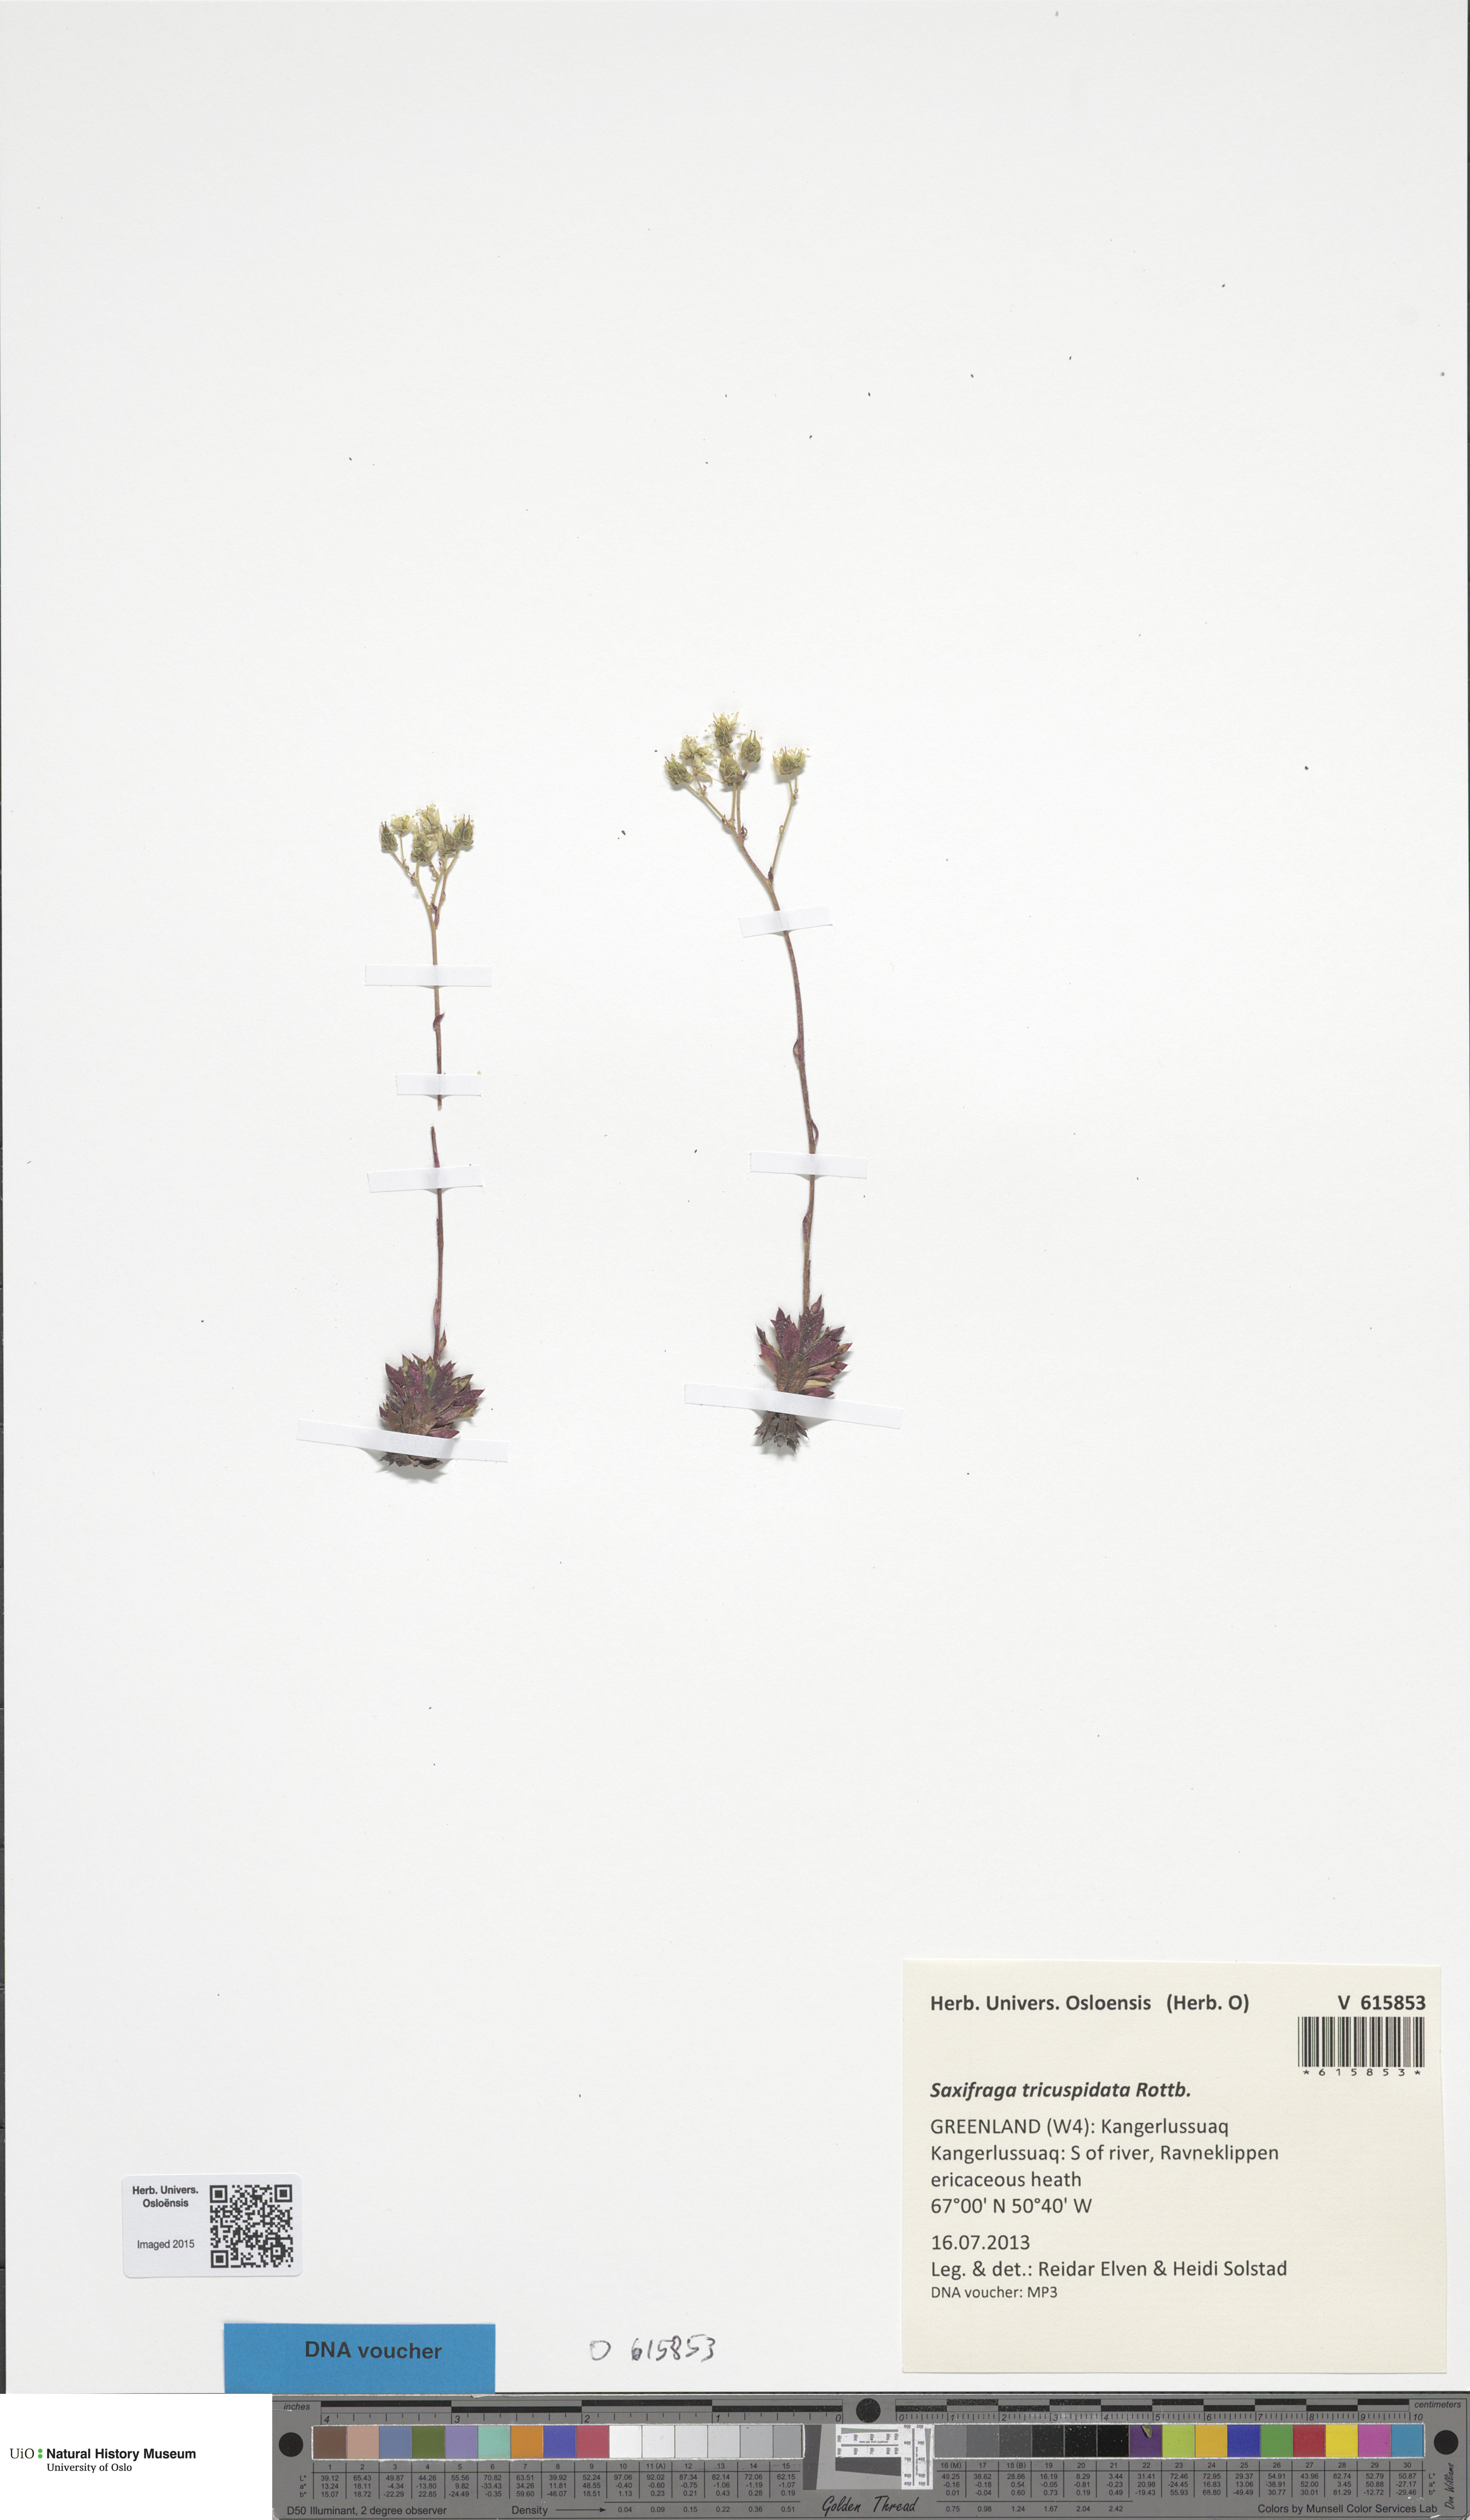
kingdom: Plantae
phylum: Tracheophyta
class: Magnoliopsida
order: Saxifragales
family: Saxifragaceae
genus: Saxifraga
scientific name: Saxifraga tricuspidata
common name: Prickly saxifrage
